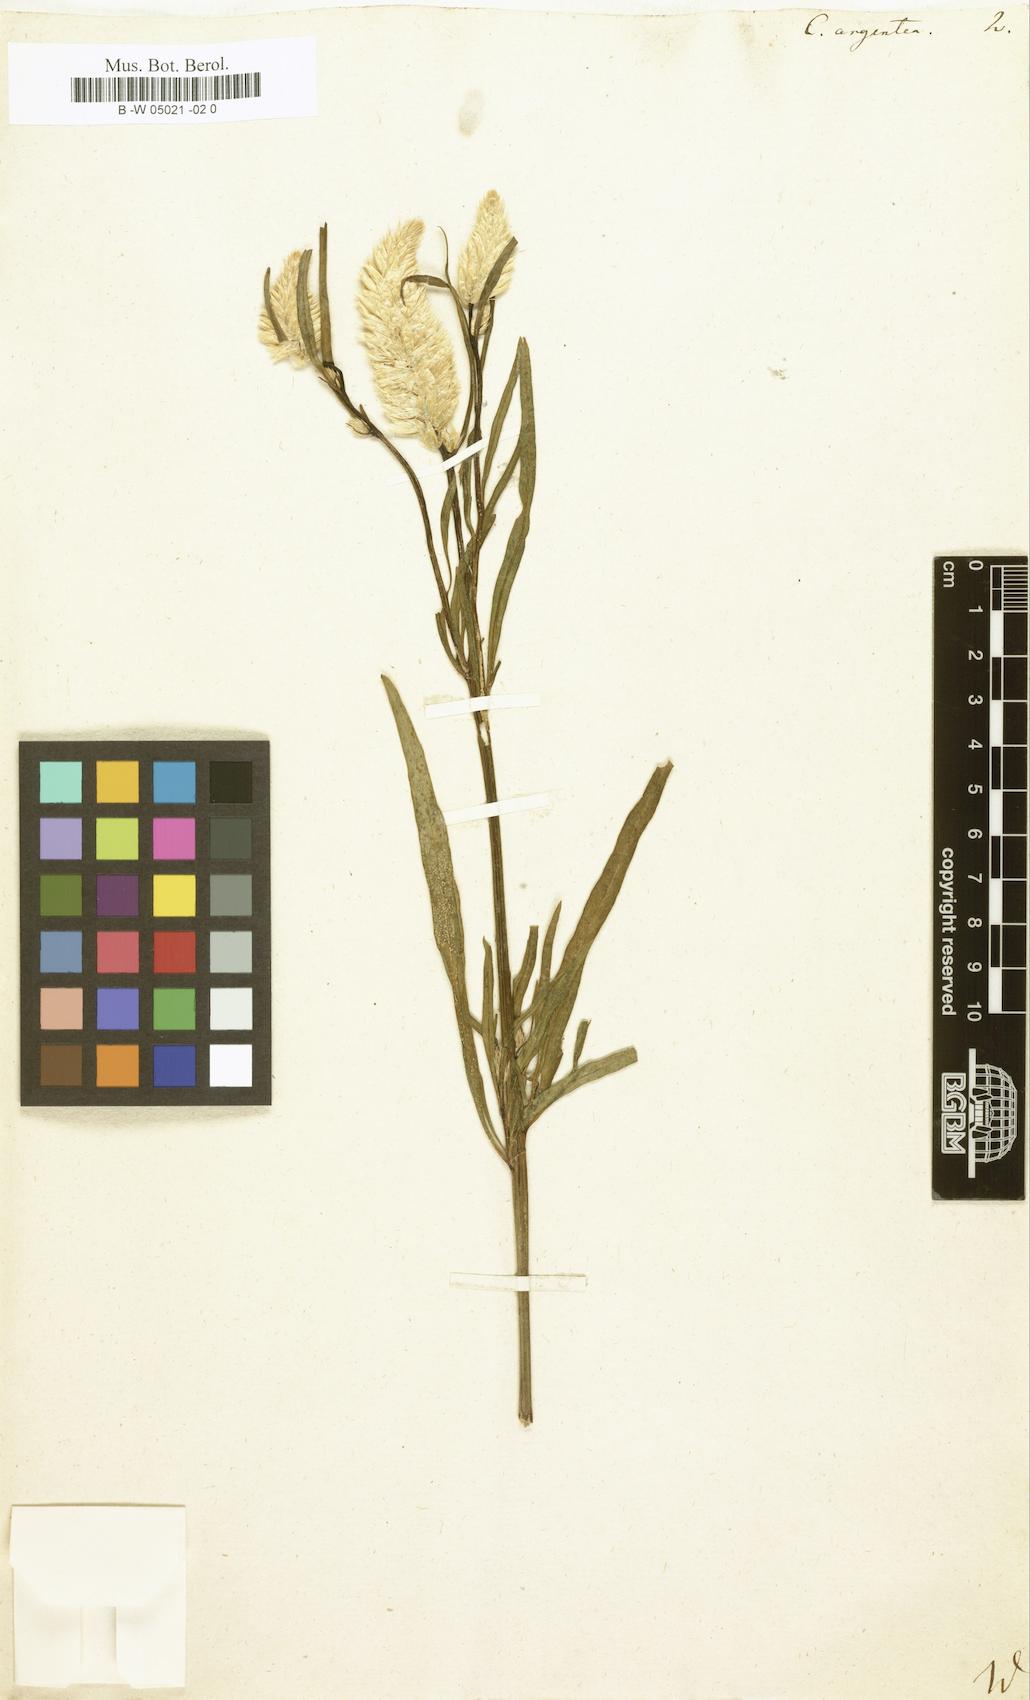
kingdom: Plantae
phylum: Tracheophyta
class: Magnoliopsida
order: Caryophyllales
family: Amaranthaceae
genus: Celosia
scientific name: Celosia argentea
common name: Feather cockscomb
